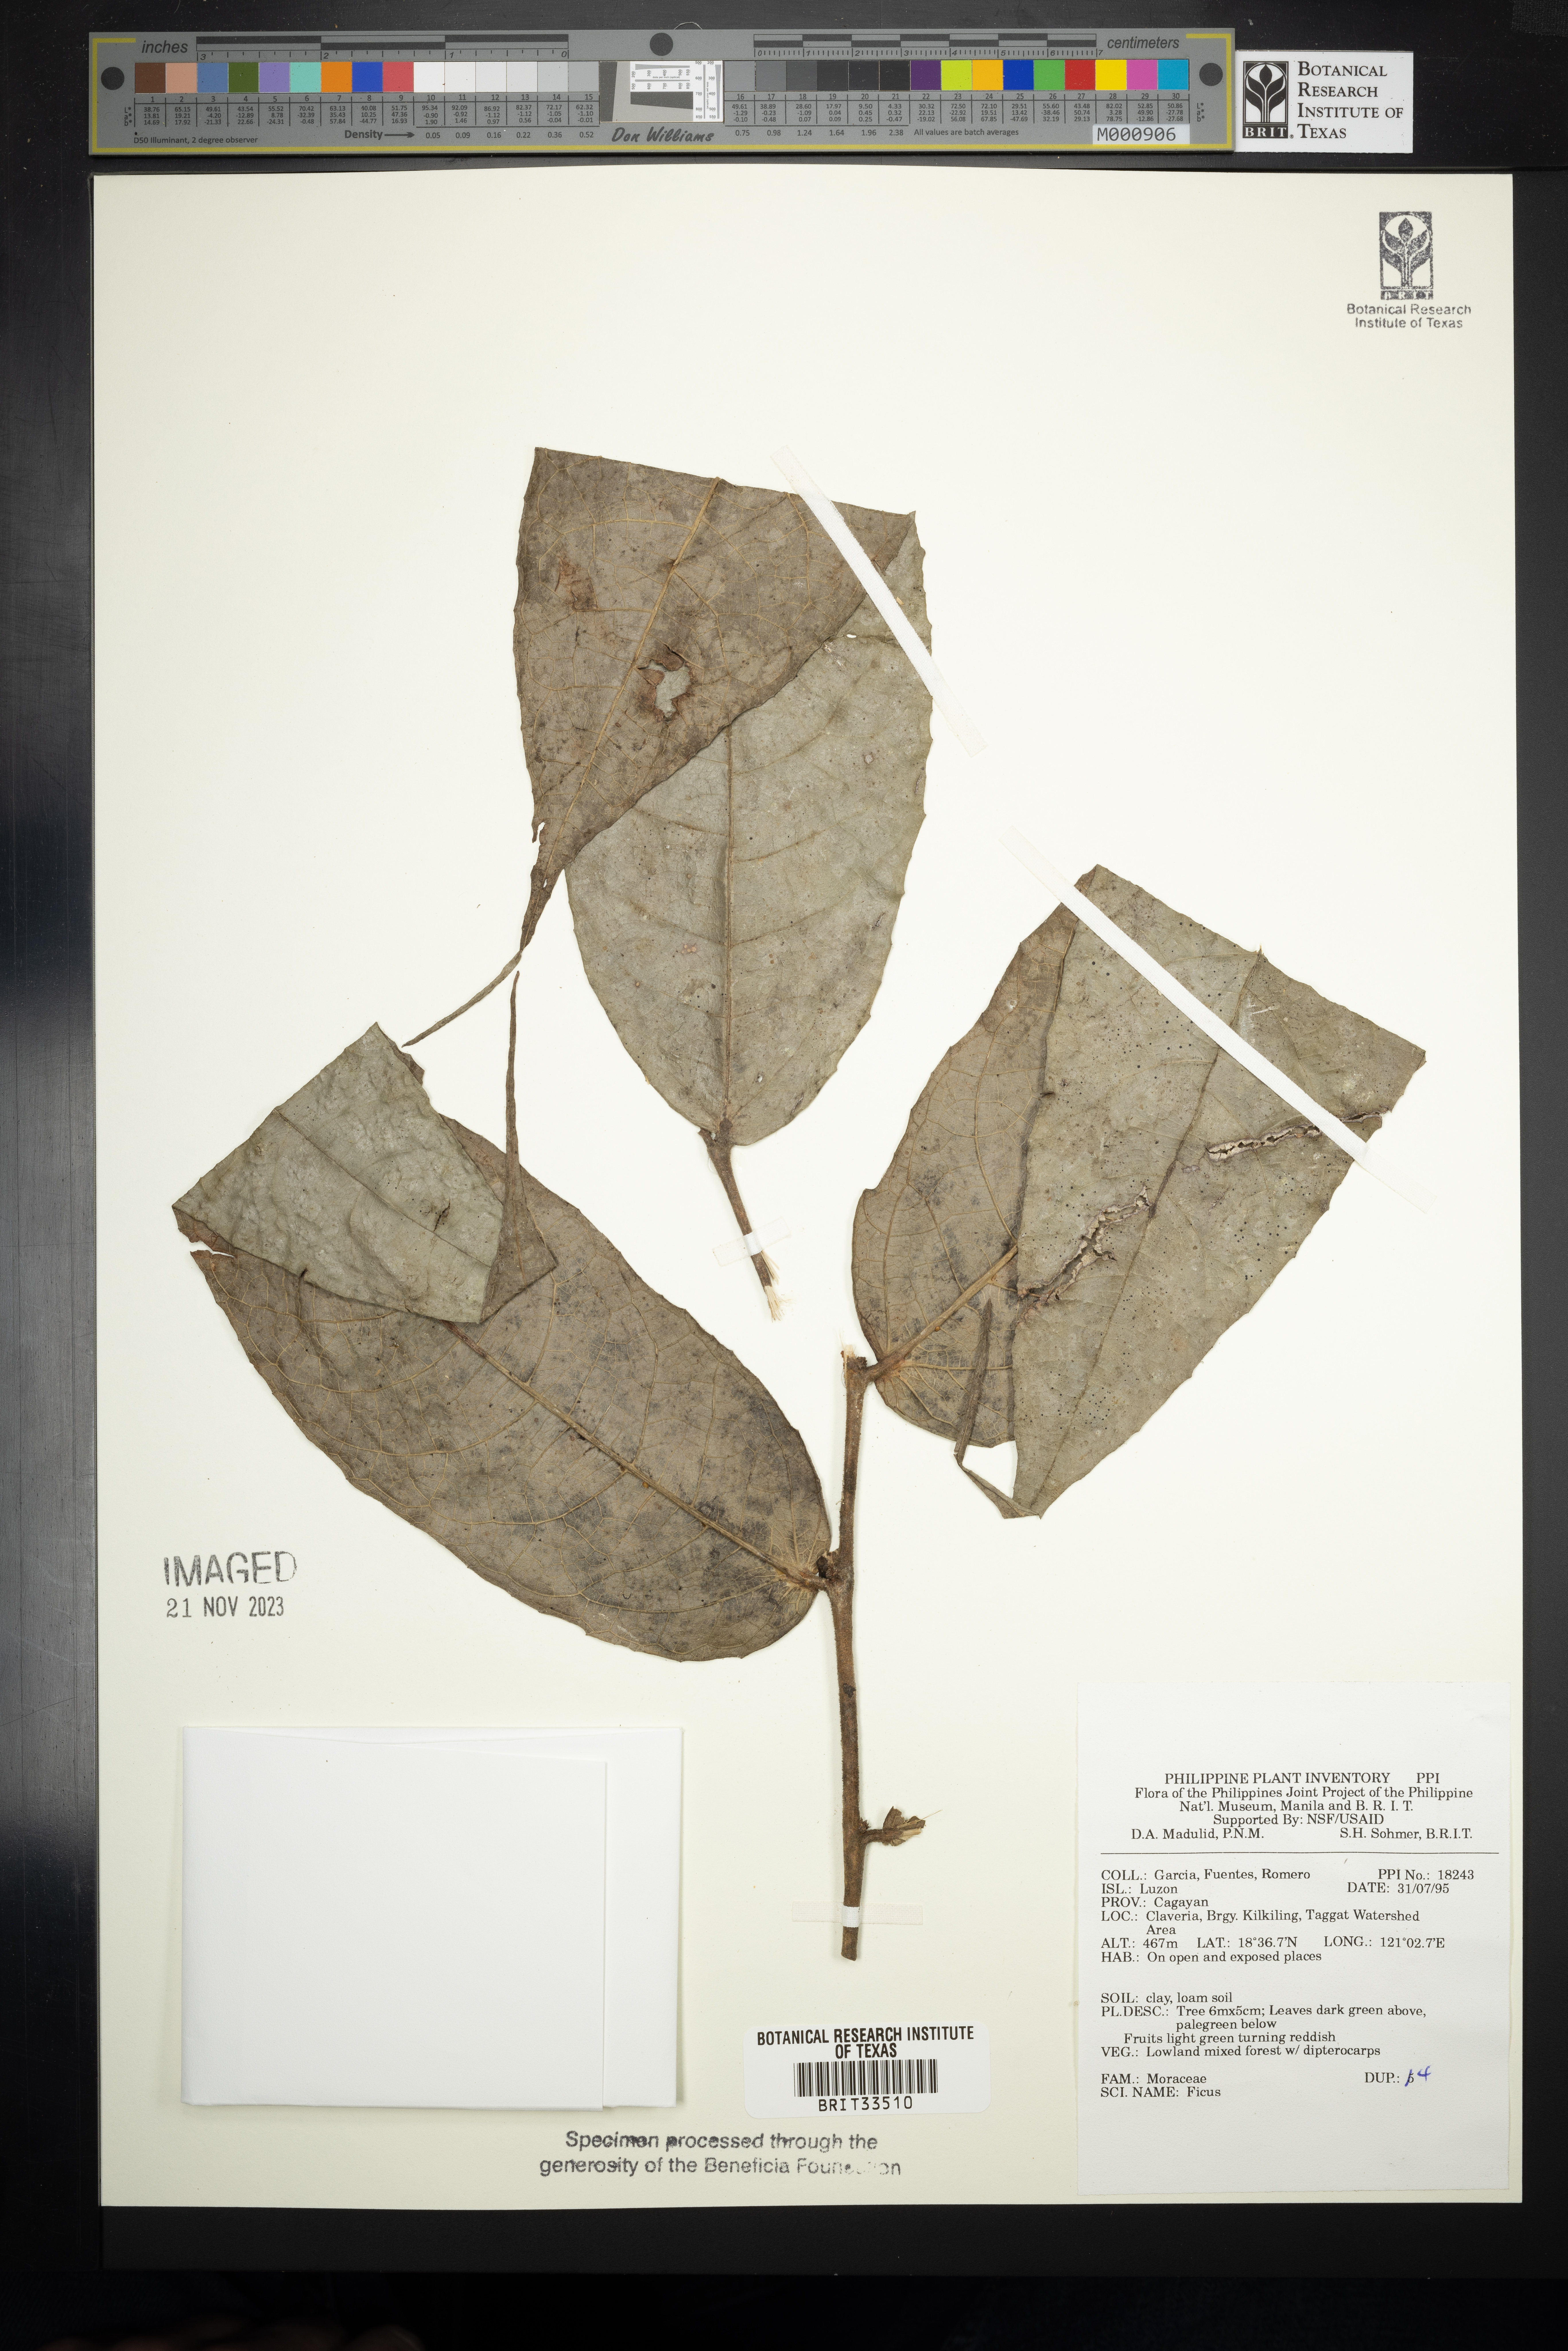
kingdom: Plantae
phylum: Tracheophyta
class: Magnoliopsida
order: Rosales
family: Moraceae
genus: Ficus
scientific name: Ficus
